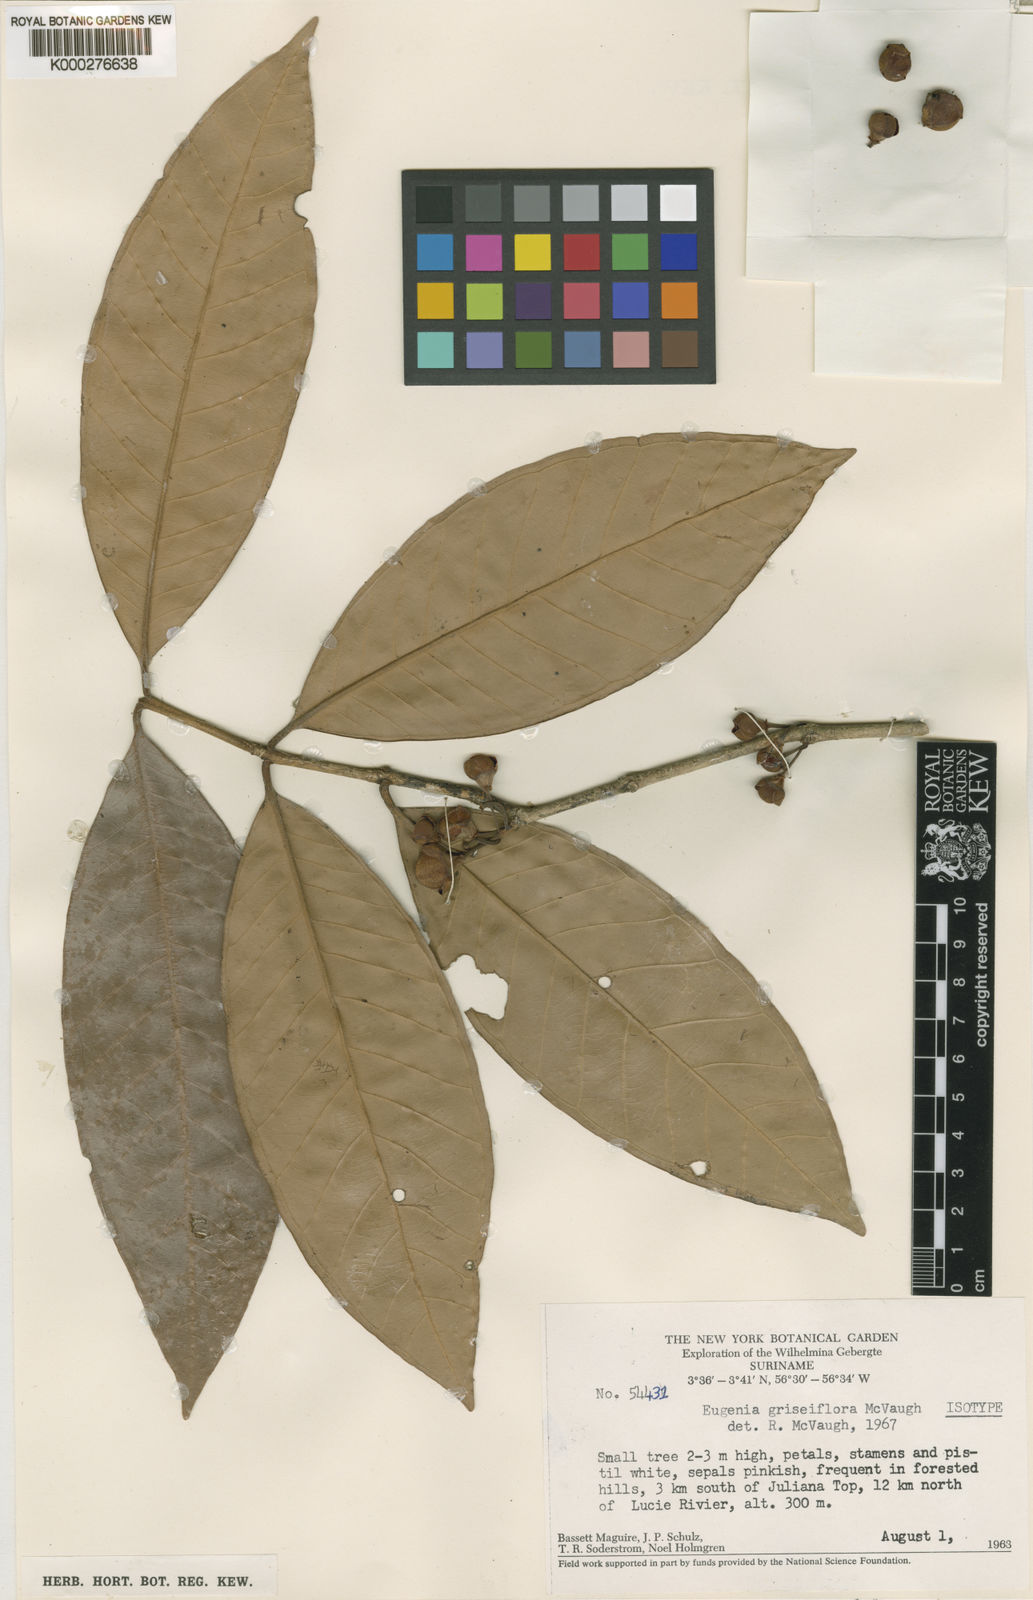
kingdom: Plantae
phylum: Tracheophyta
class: Magnoliopsida
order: Myrtales
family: Myrtaceae
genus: Eugenia
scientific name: Eugenia griseiflora
